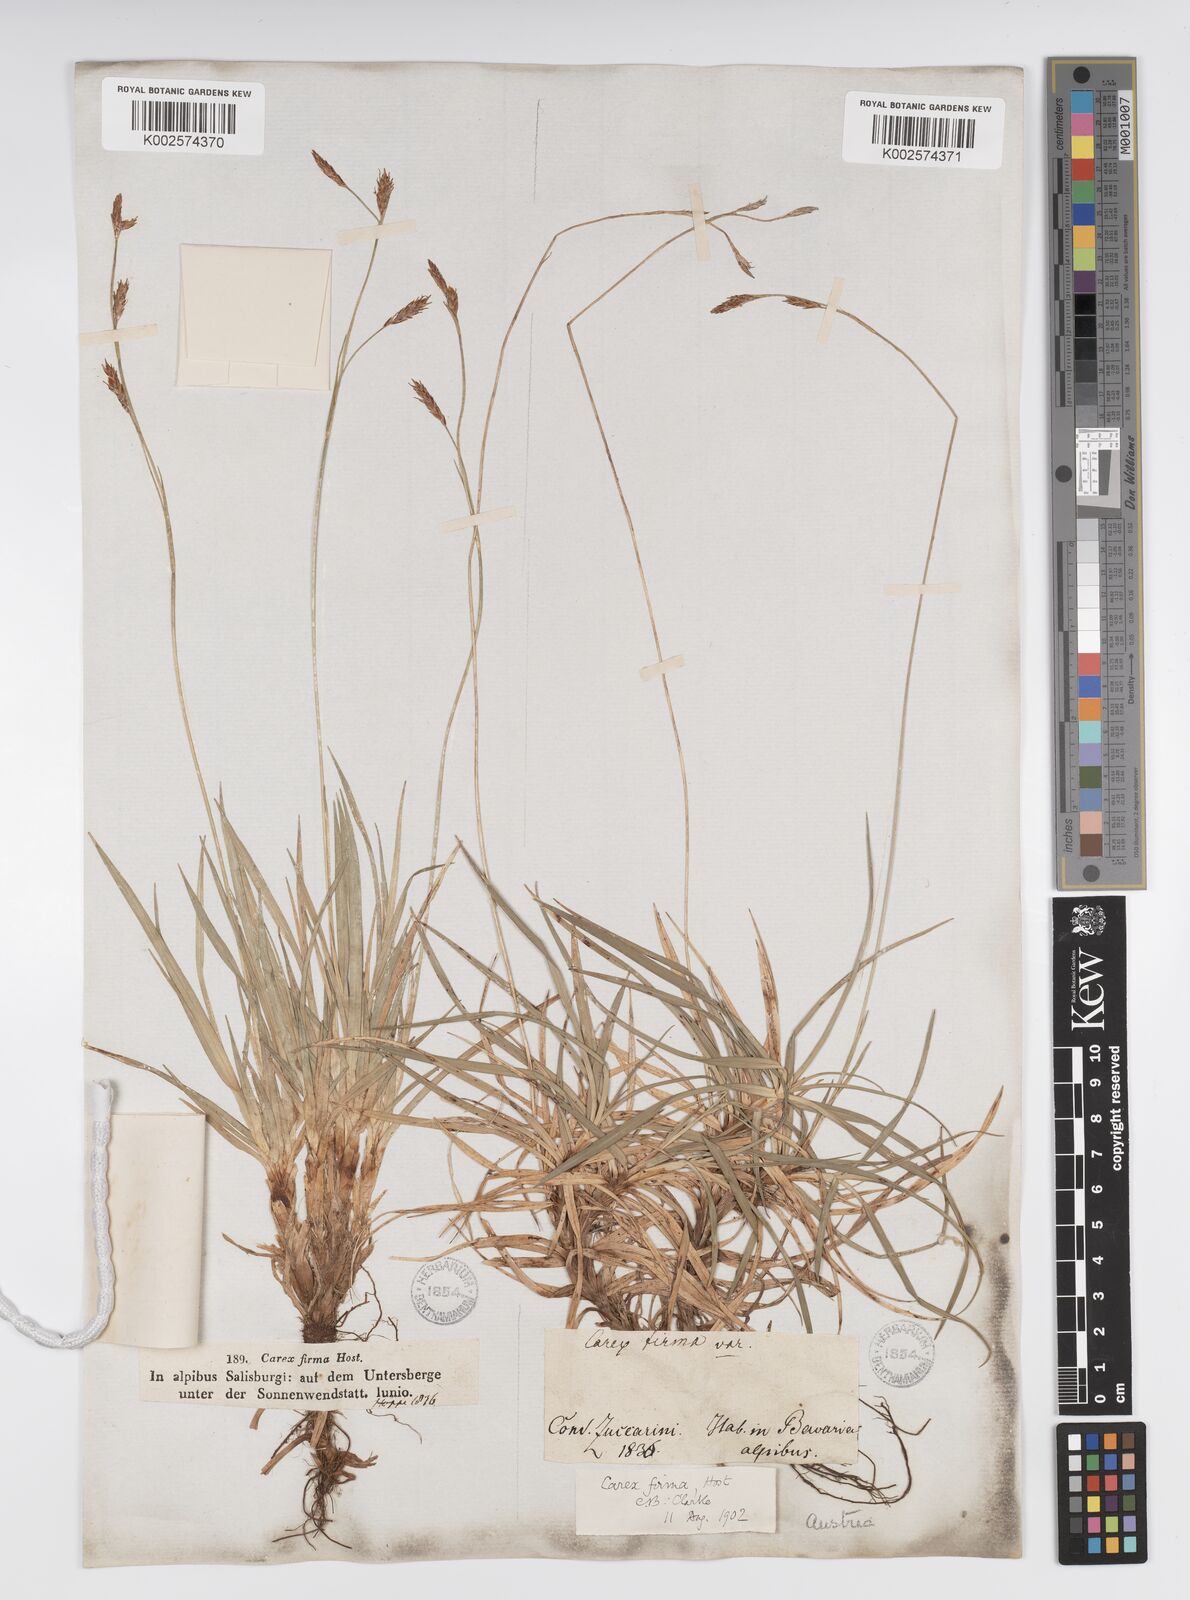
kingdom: Plantae
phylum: Tracheophyta
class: Liliopsida
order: Poales
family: Cyperaceae
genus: Carex
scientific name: Carex firma
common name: Dwarf pillow sedge
